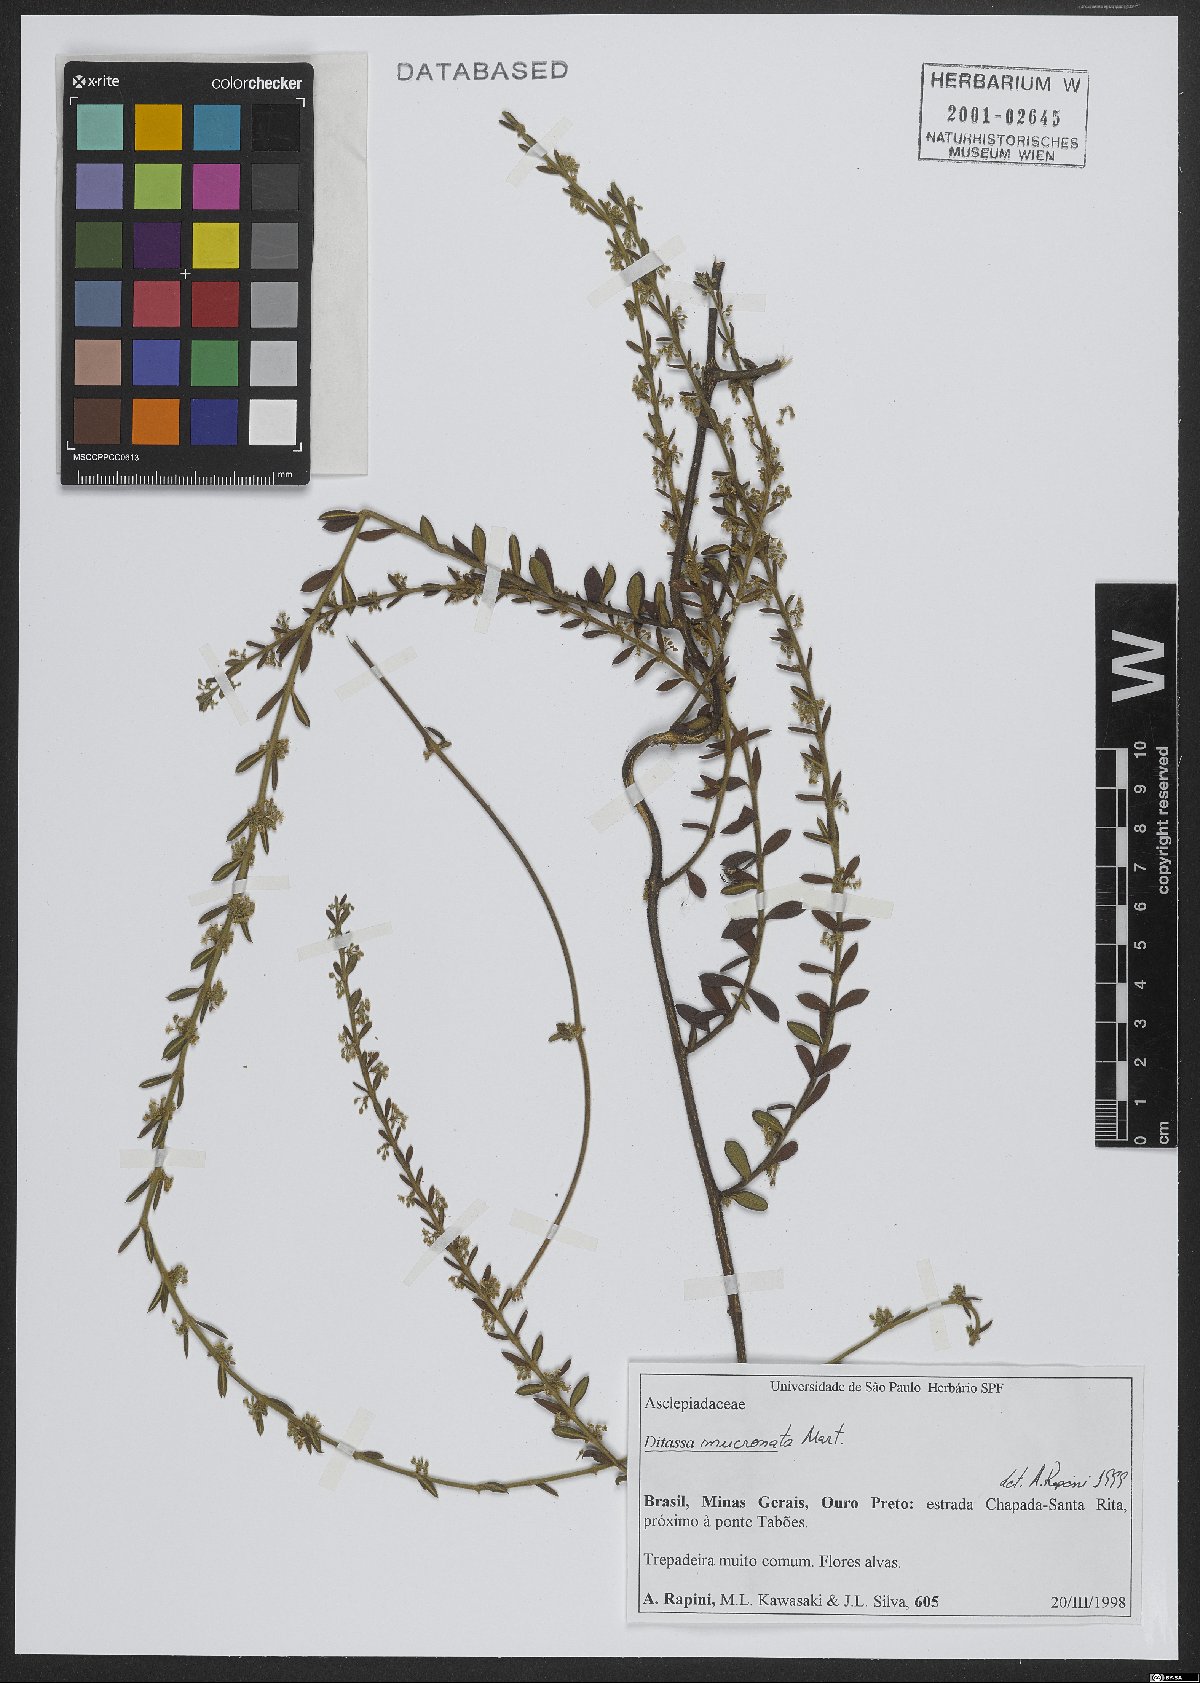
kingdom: Plantae
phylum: Tracheophyta
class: Magnoliopsida
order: Gentianales
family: Apocynaceae
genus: Ditassa
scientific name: Ditassa mucronata
